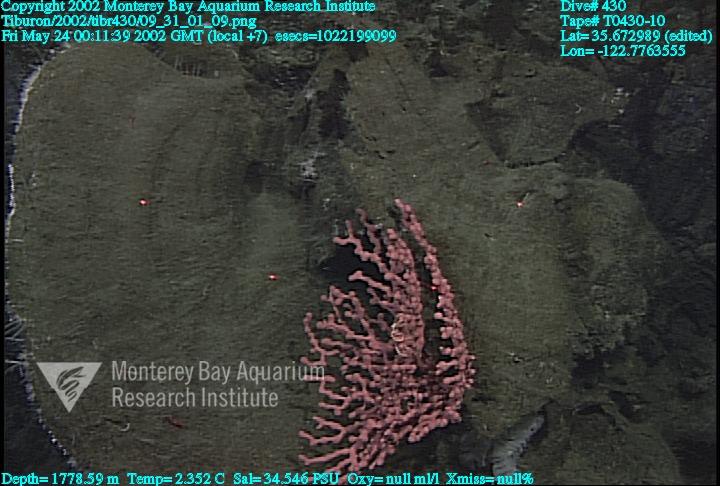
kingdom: Animalia
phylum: Porifera
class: Hexactinellida
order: Sceptrulophora
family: Euretidae
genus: Chonelasma
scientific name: Chonelasma
